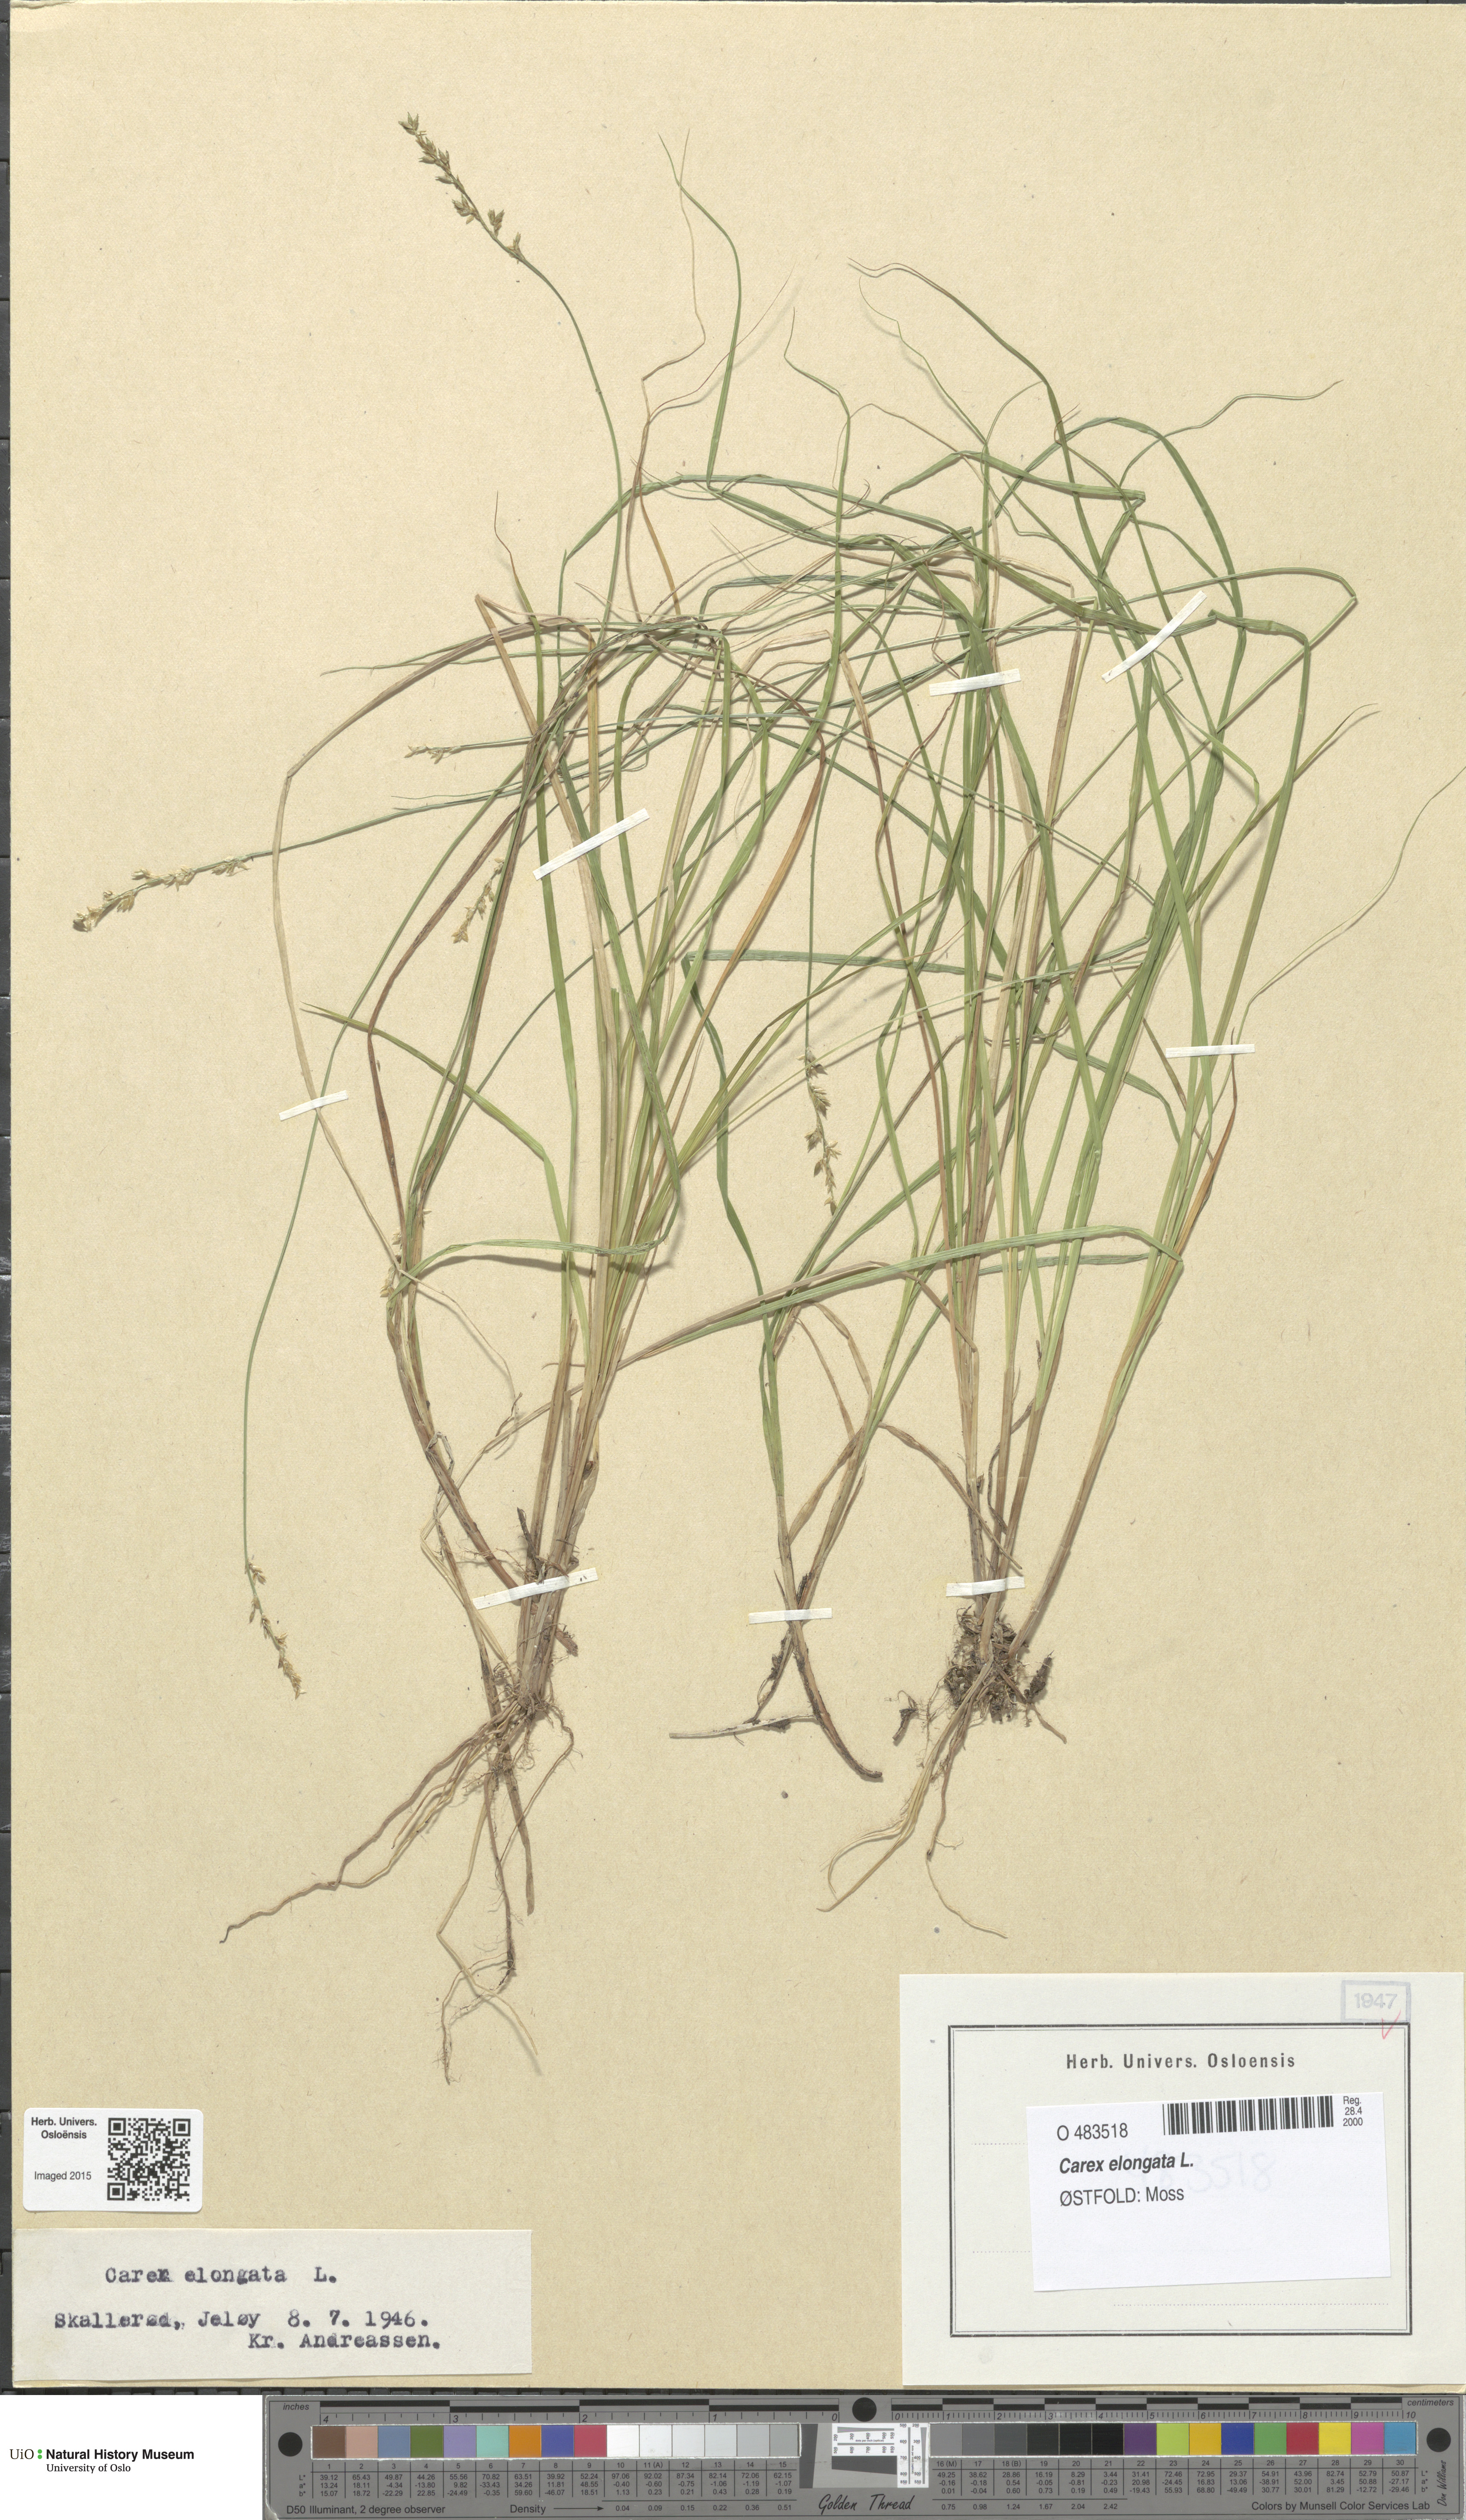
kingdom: Plantae
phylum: Tracheophyta
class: Liliopsida
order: Poales
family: Cyperaceae
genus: Carex
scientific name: Carex elongata
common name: Elongated sedge
